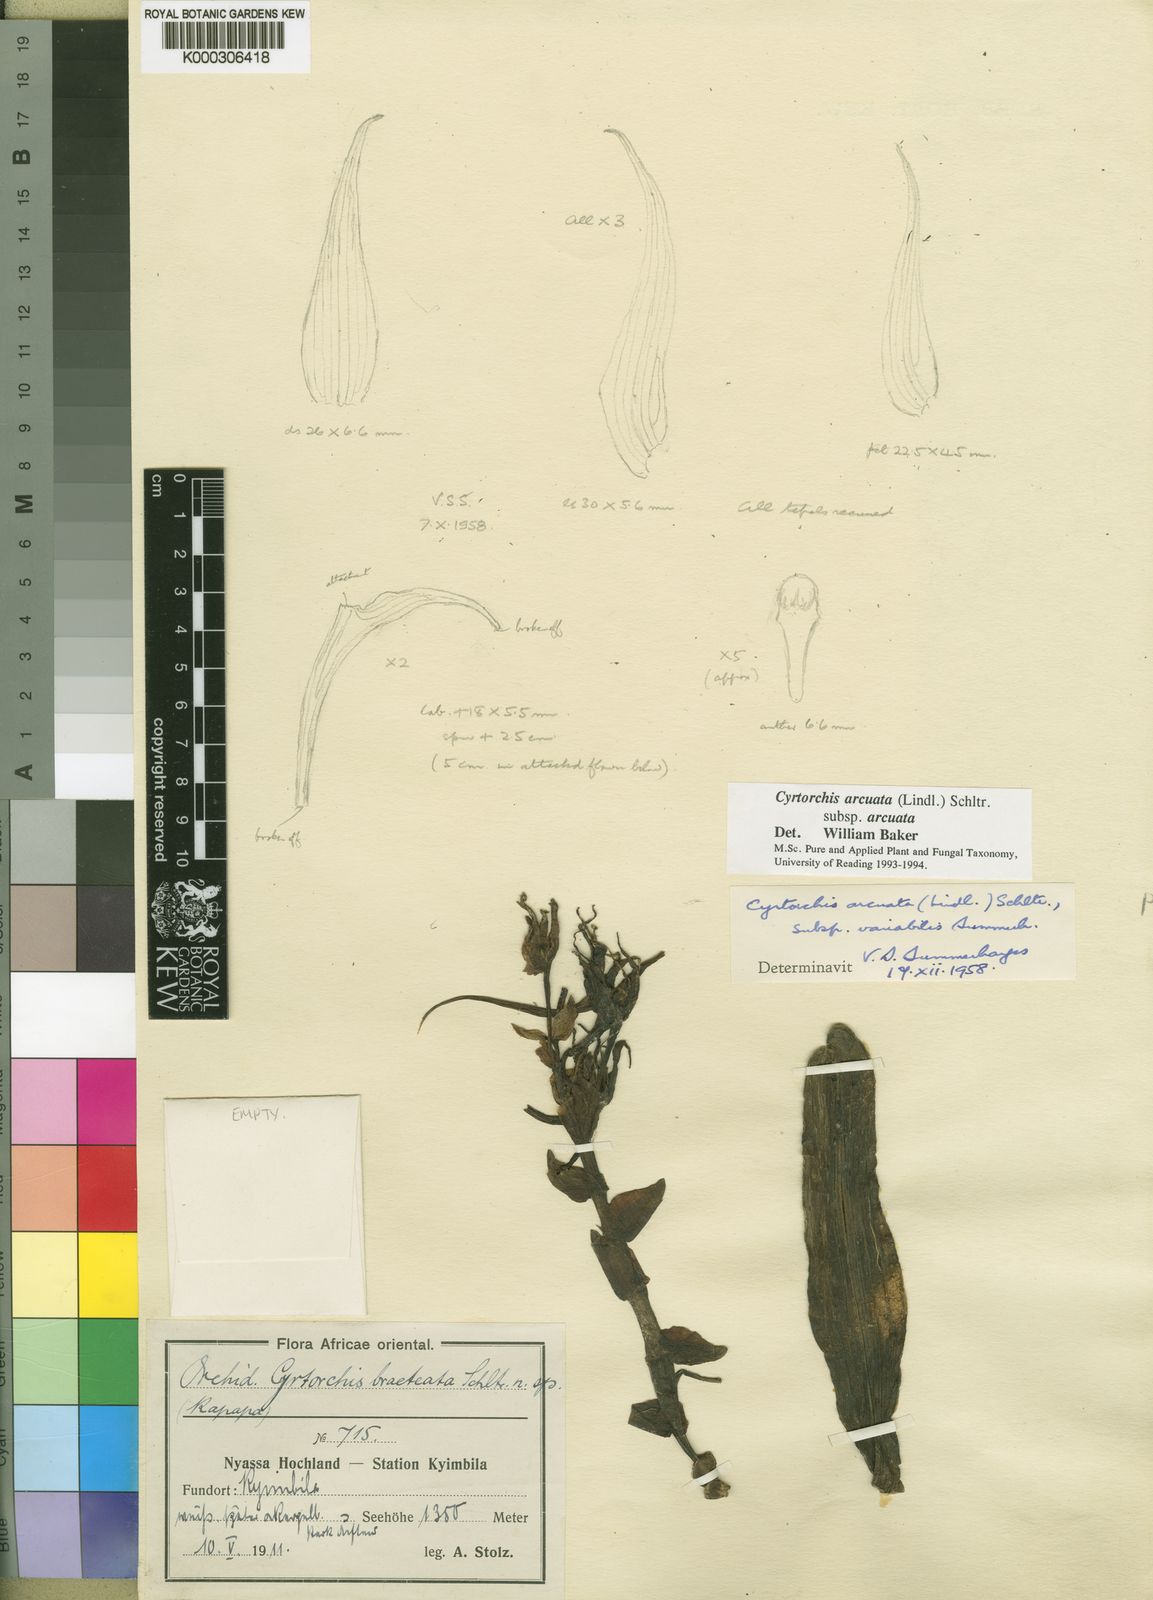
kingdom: Plantae
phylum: Tracheophyta
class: Liliopsida
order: Asparagales
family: Orchidaceae
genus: Cyrtorchis
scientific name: Cyrtorchis arcuata
